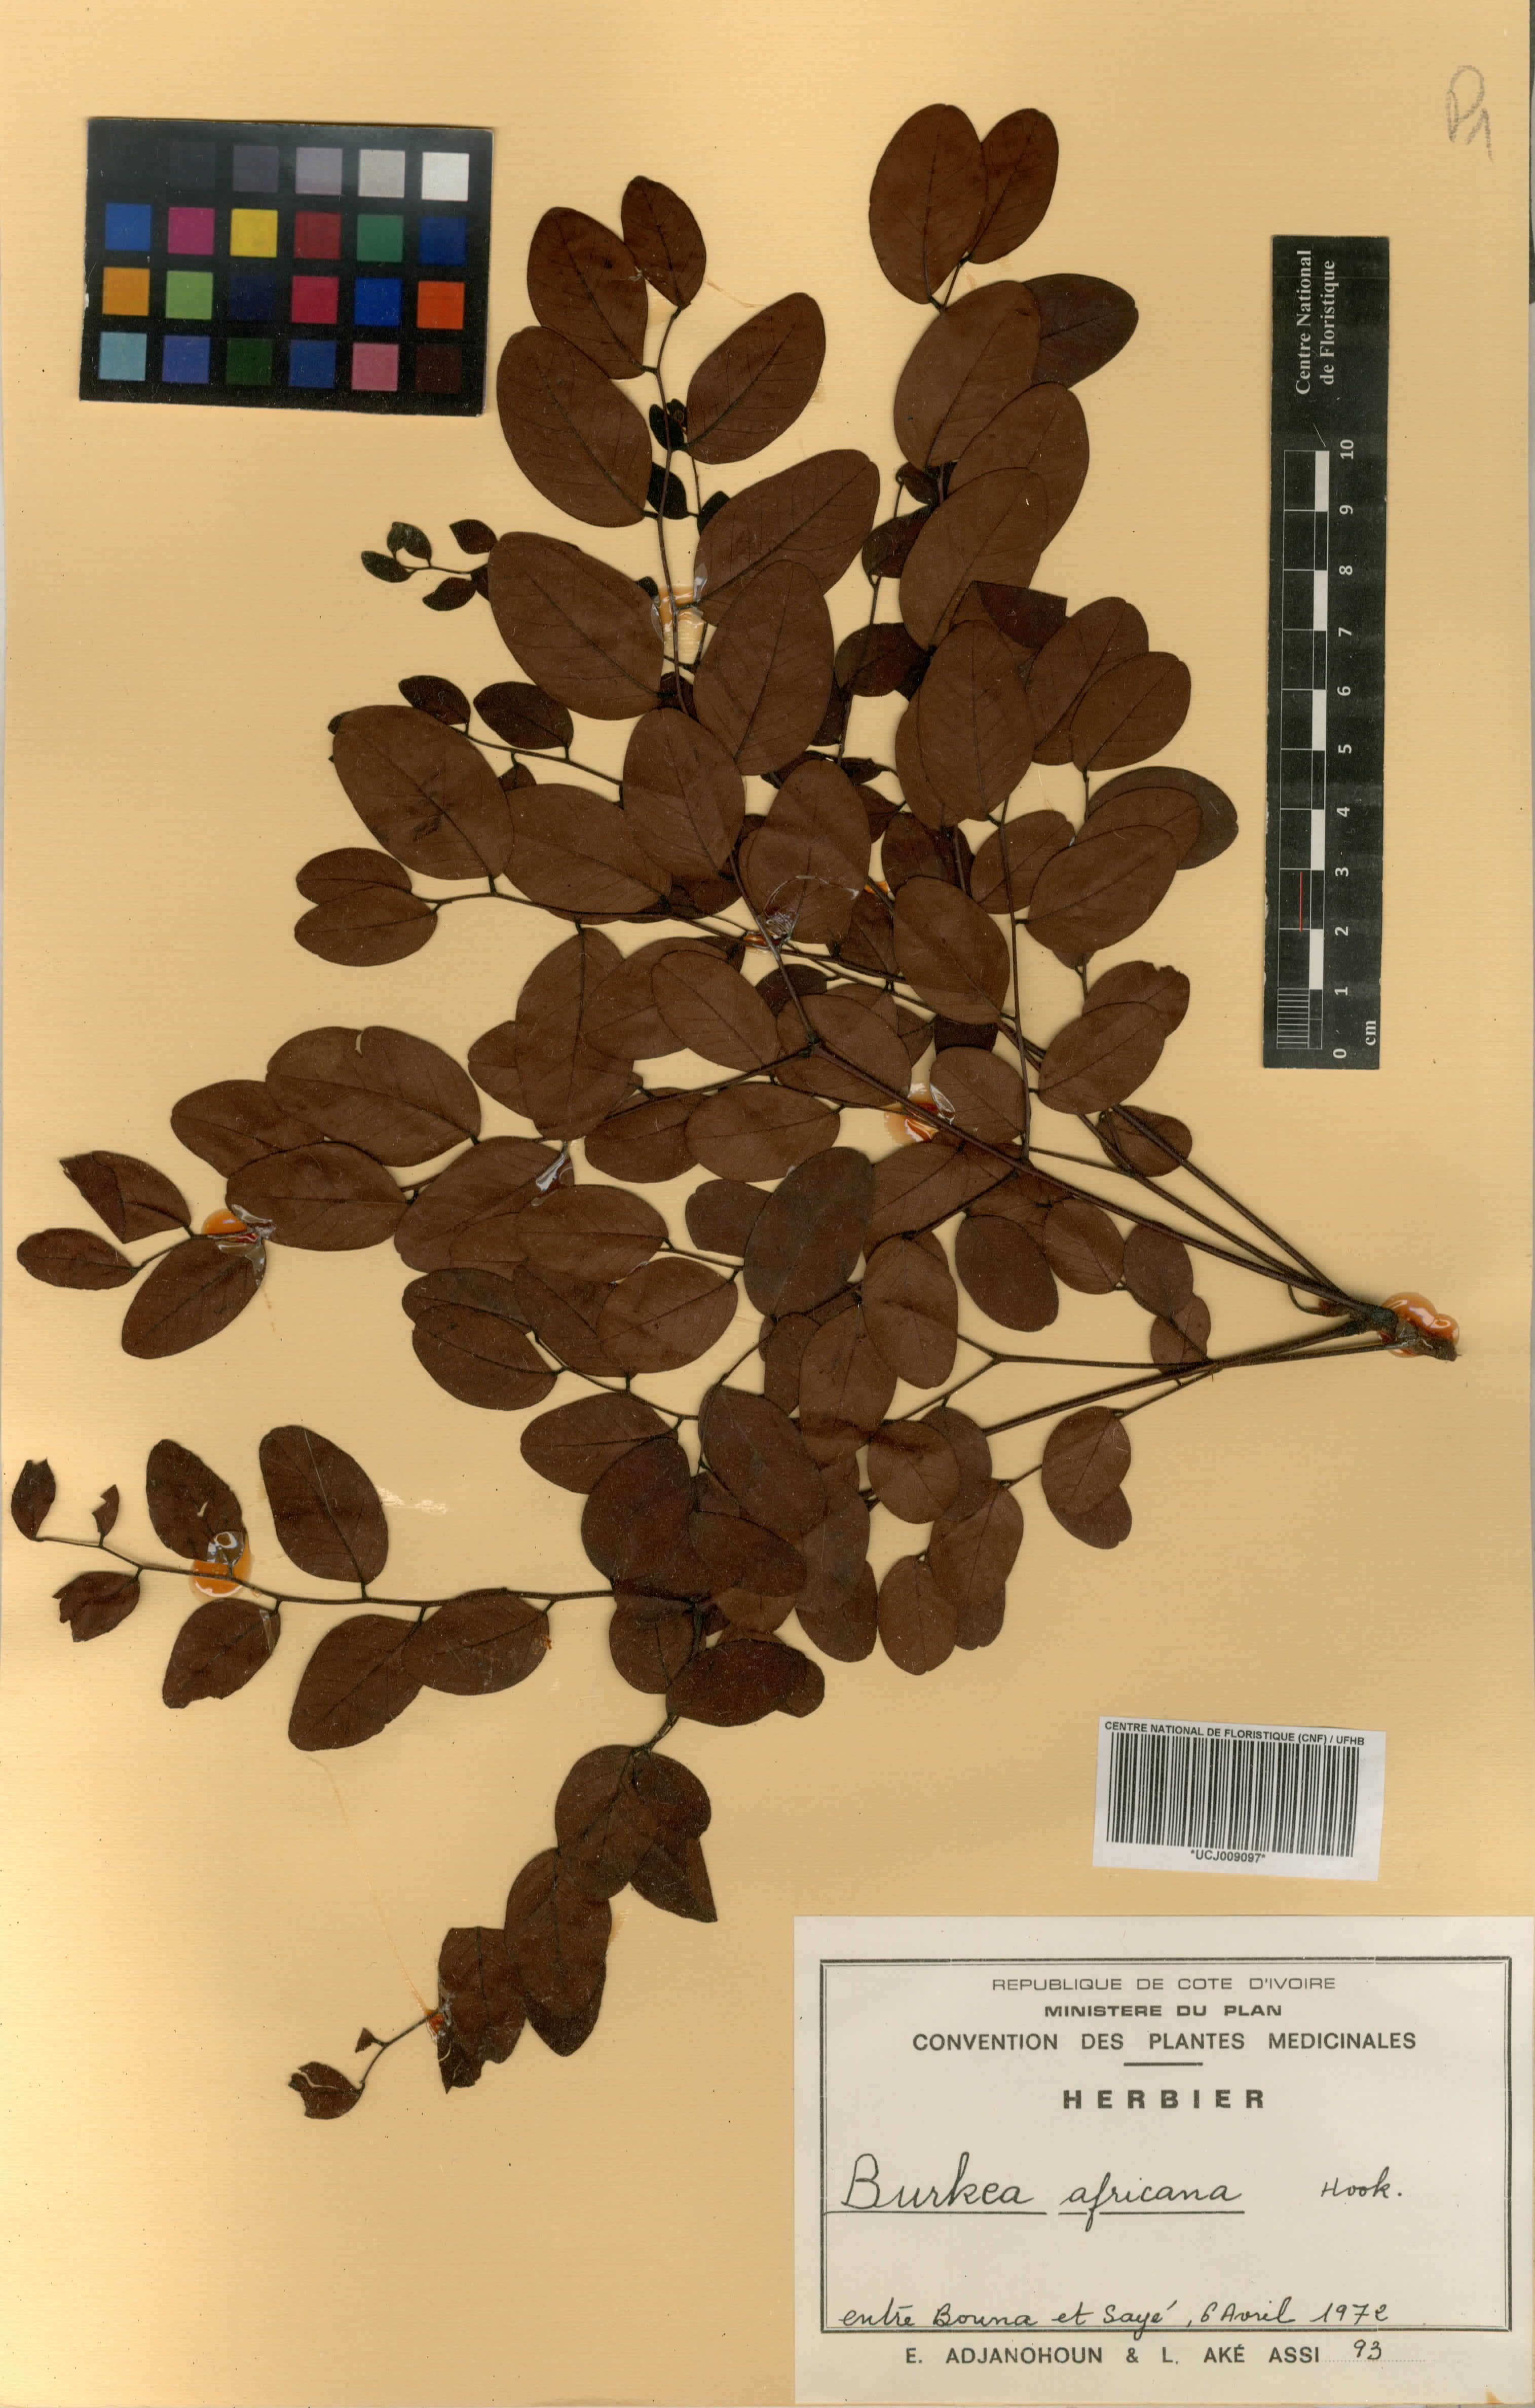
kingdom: Plantae
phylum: Tracheophyta
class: Magnoliopsida
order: Fabales
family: Fabaceae
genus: Burkea
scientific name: Burkea africana
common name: Mkalati tree
